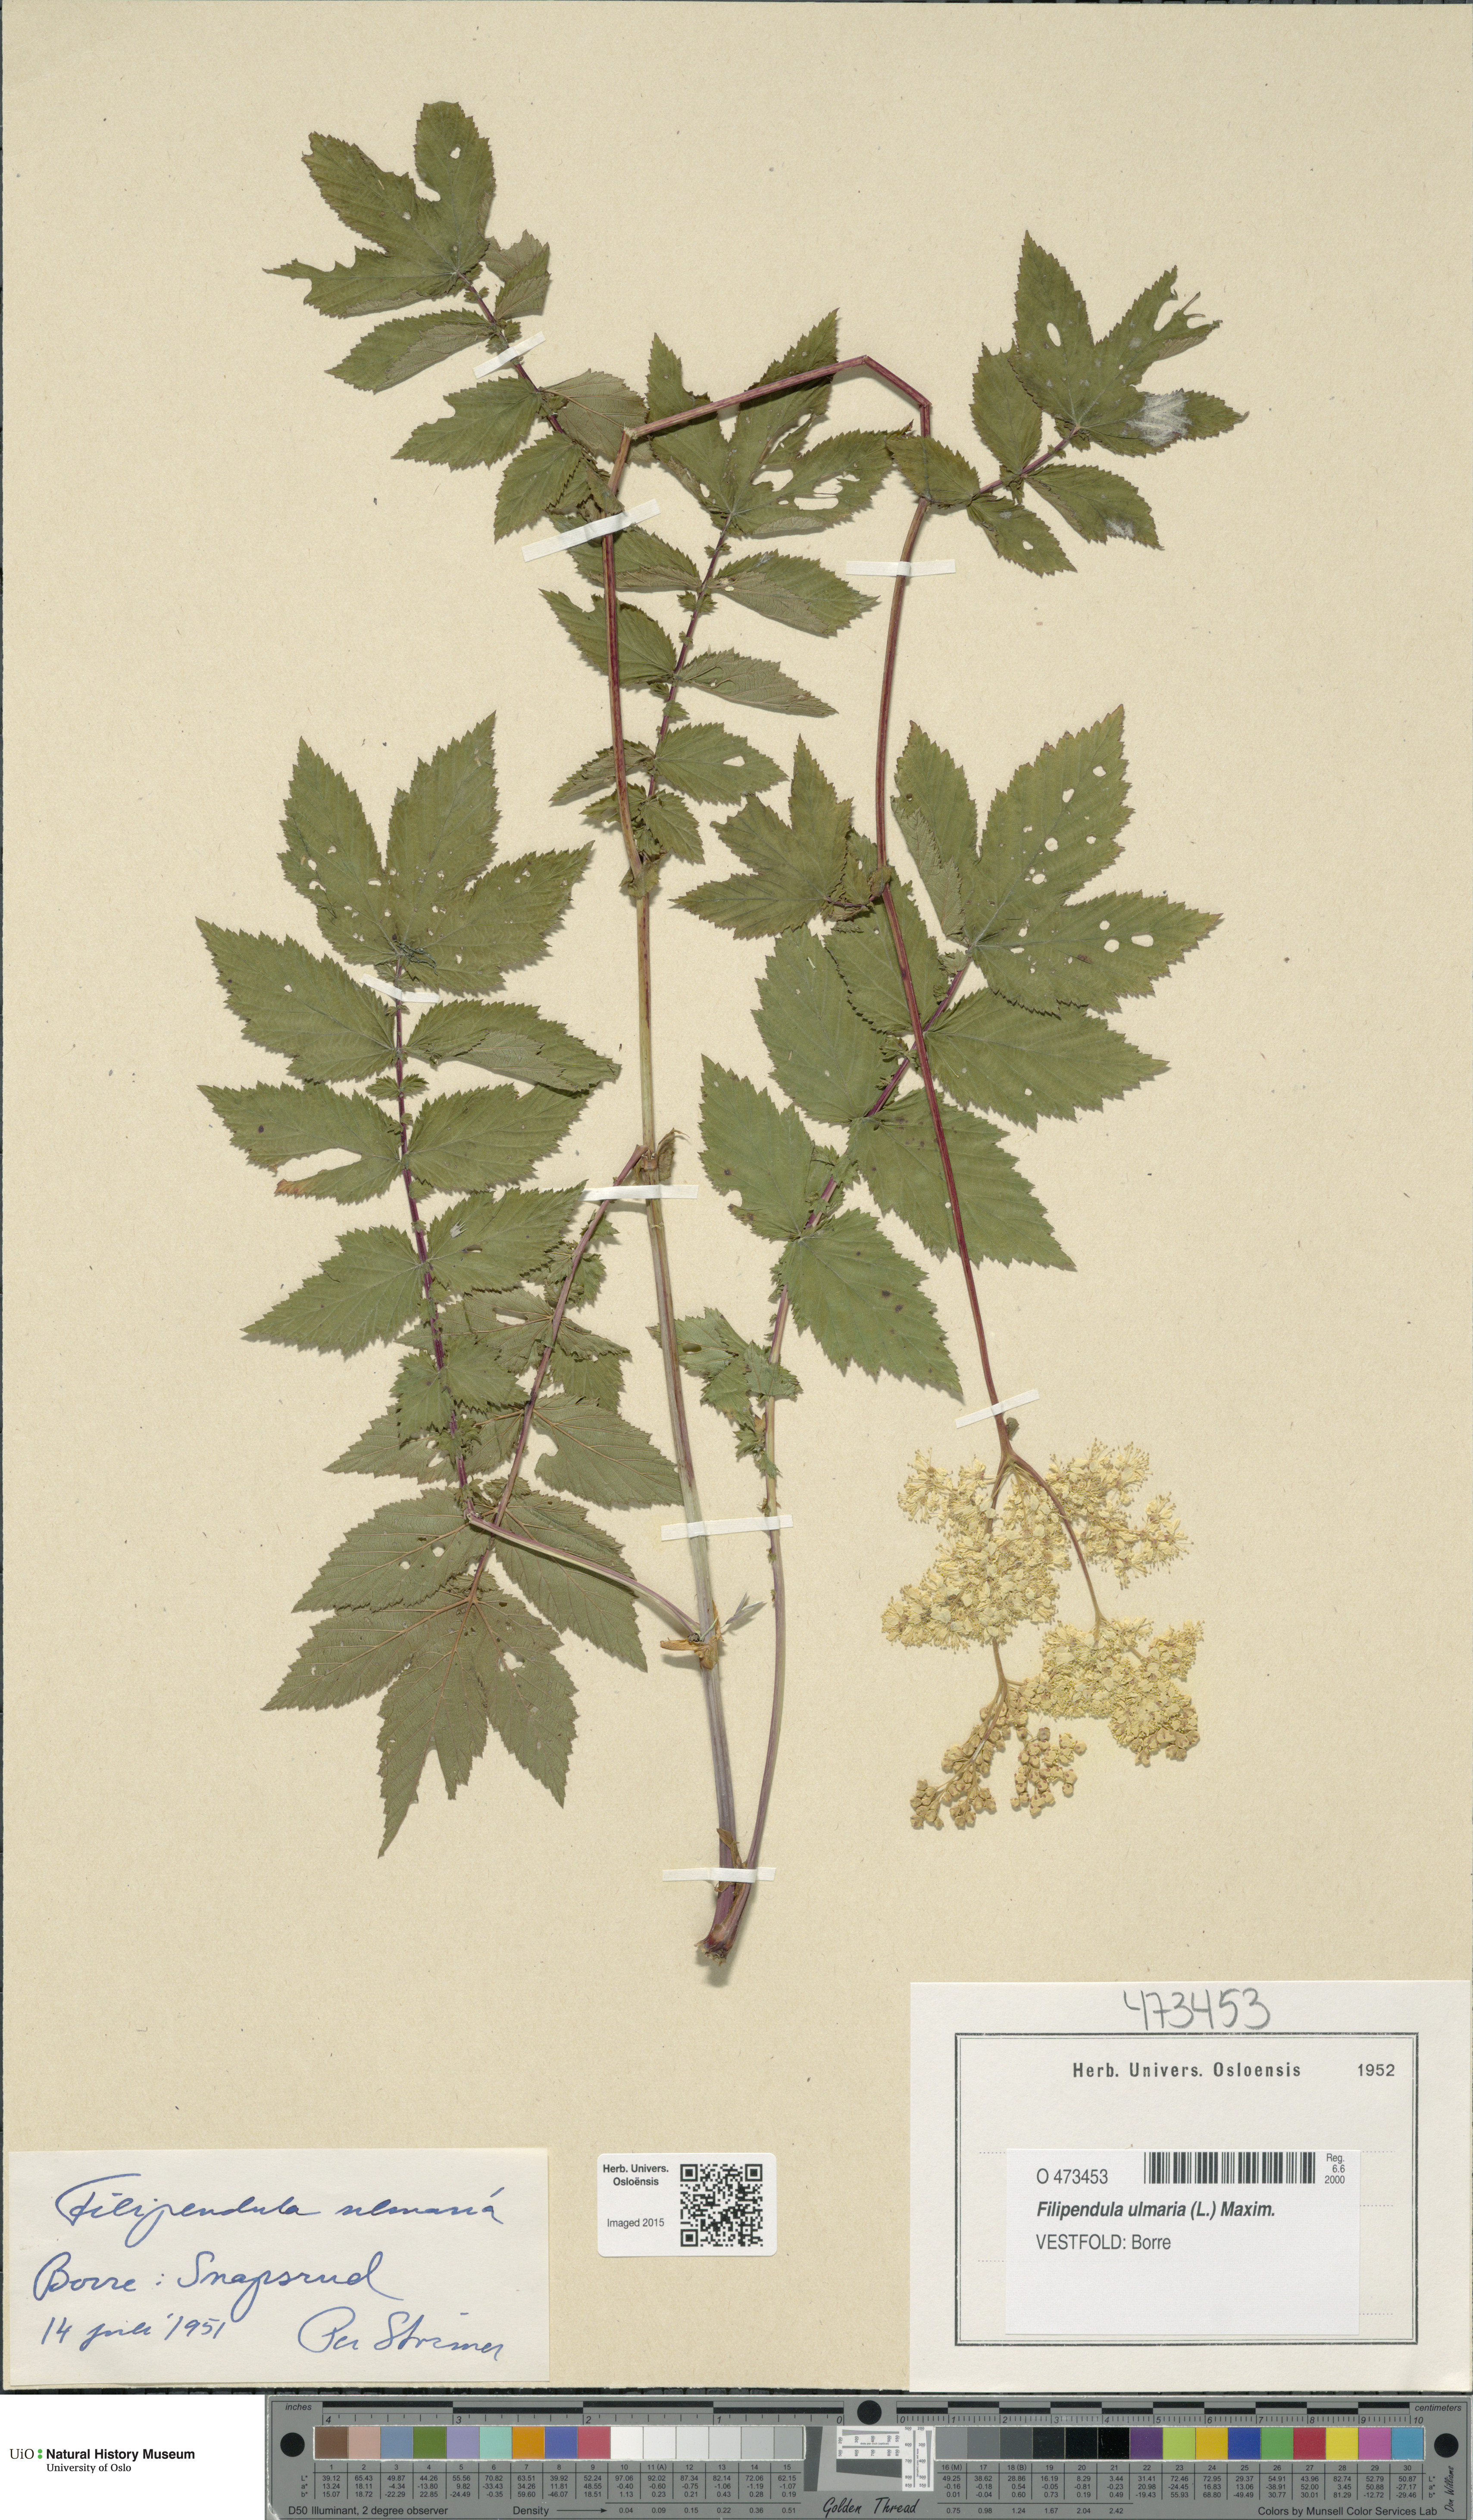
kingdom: Plantae
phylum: Tracheophyta
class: Magnoliopsida
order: Rosales
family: Rosaceae
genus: Filipendula
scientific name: Filipendula ulmaria
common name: Meadowsweet
